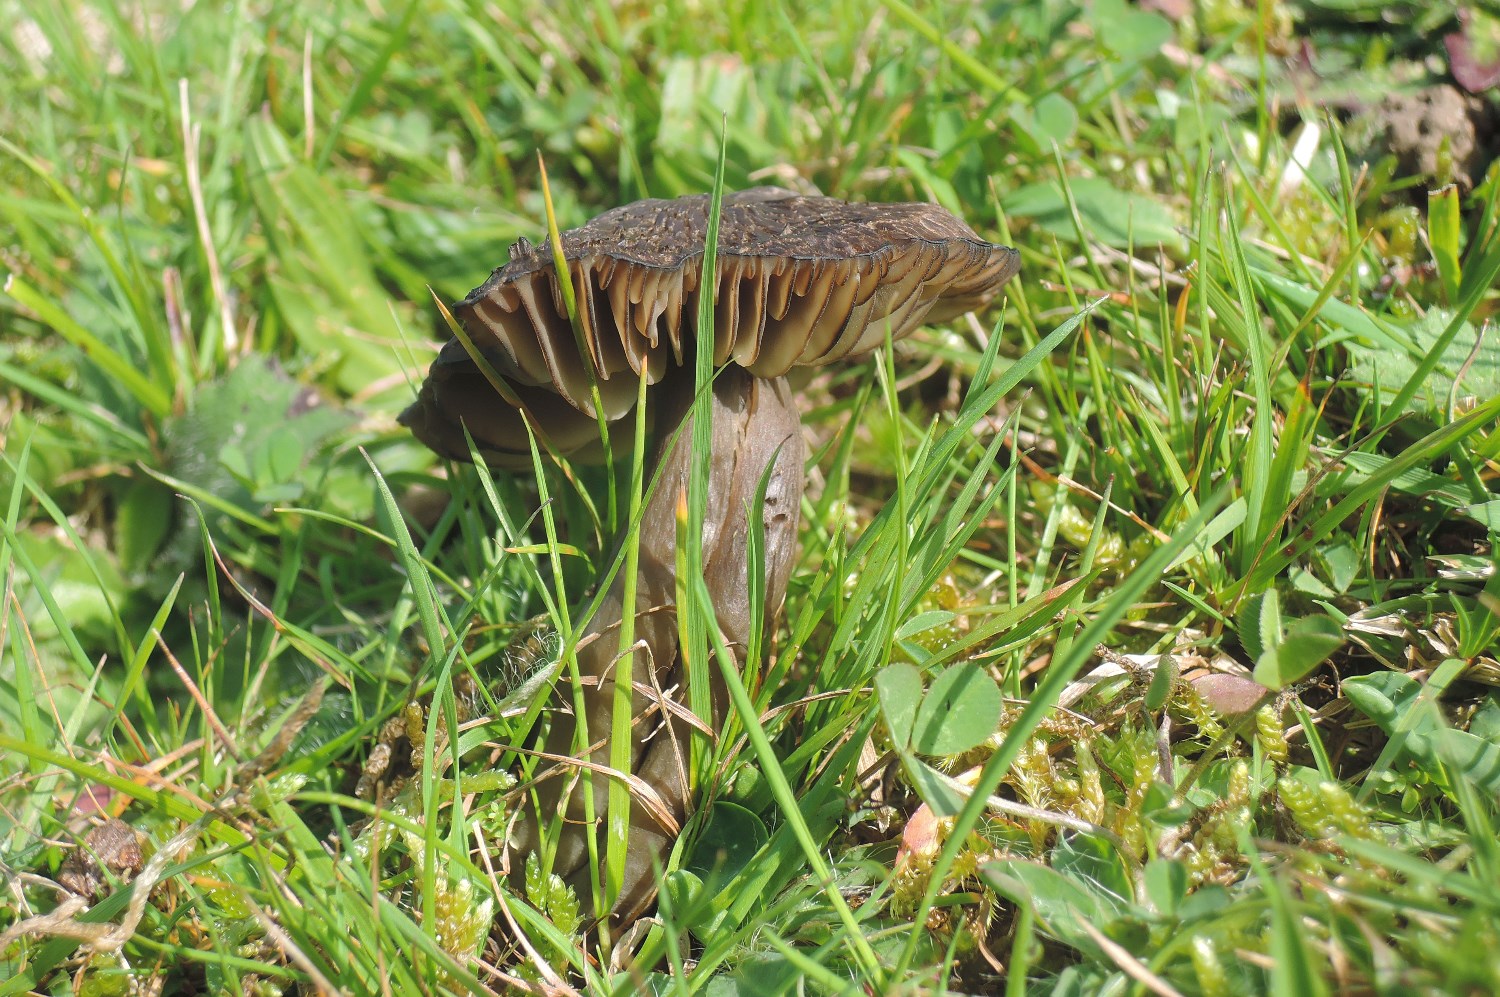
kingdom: Fungi
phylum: Basidiomycota
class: Agaricomycetes
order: Agaricales
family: Hygrophoraceae
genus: Neohygrocybe
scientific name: Neohygrocybe ovina
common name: rødmende vokshat
